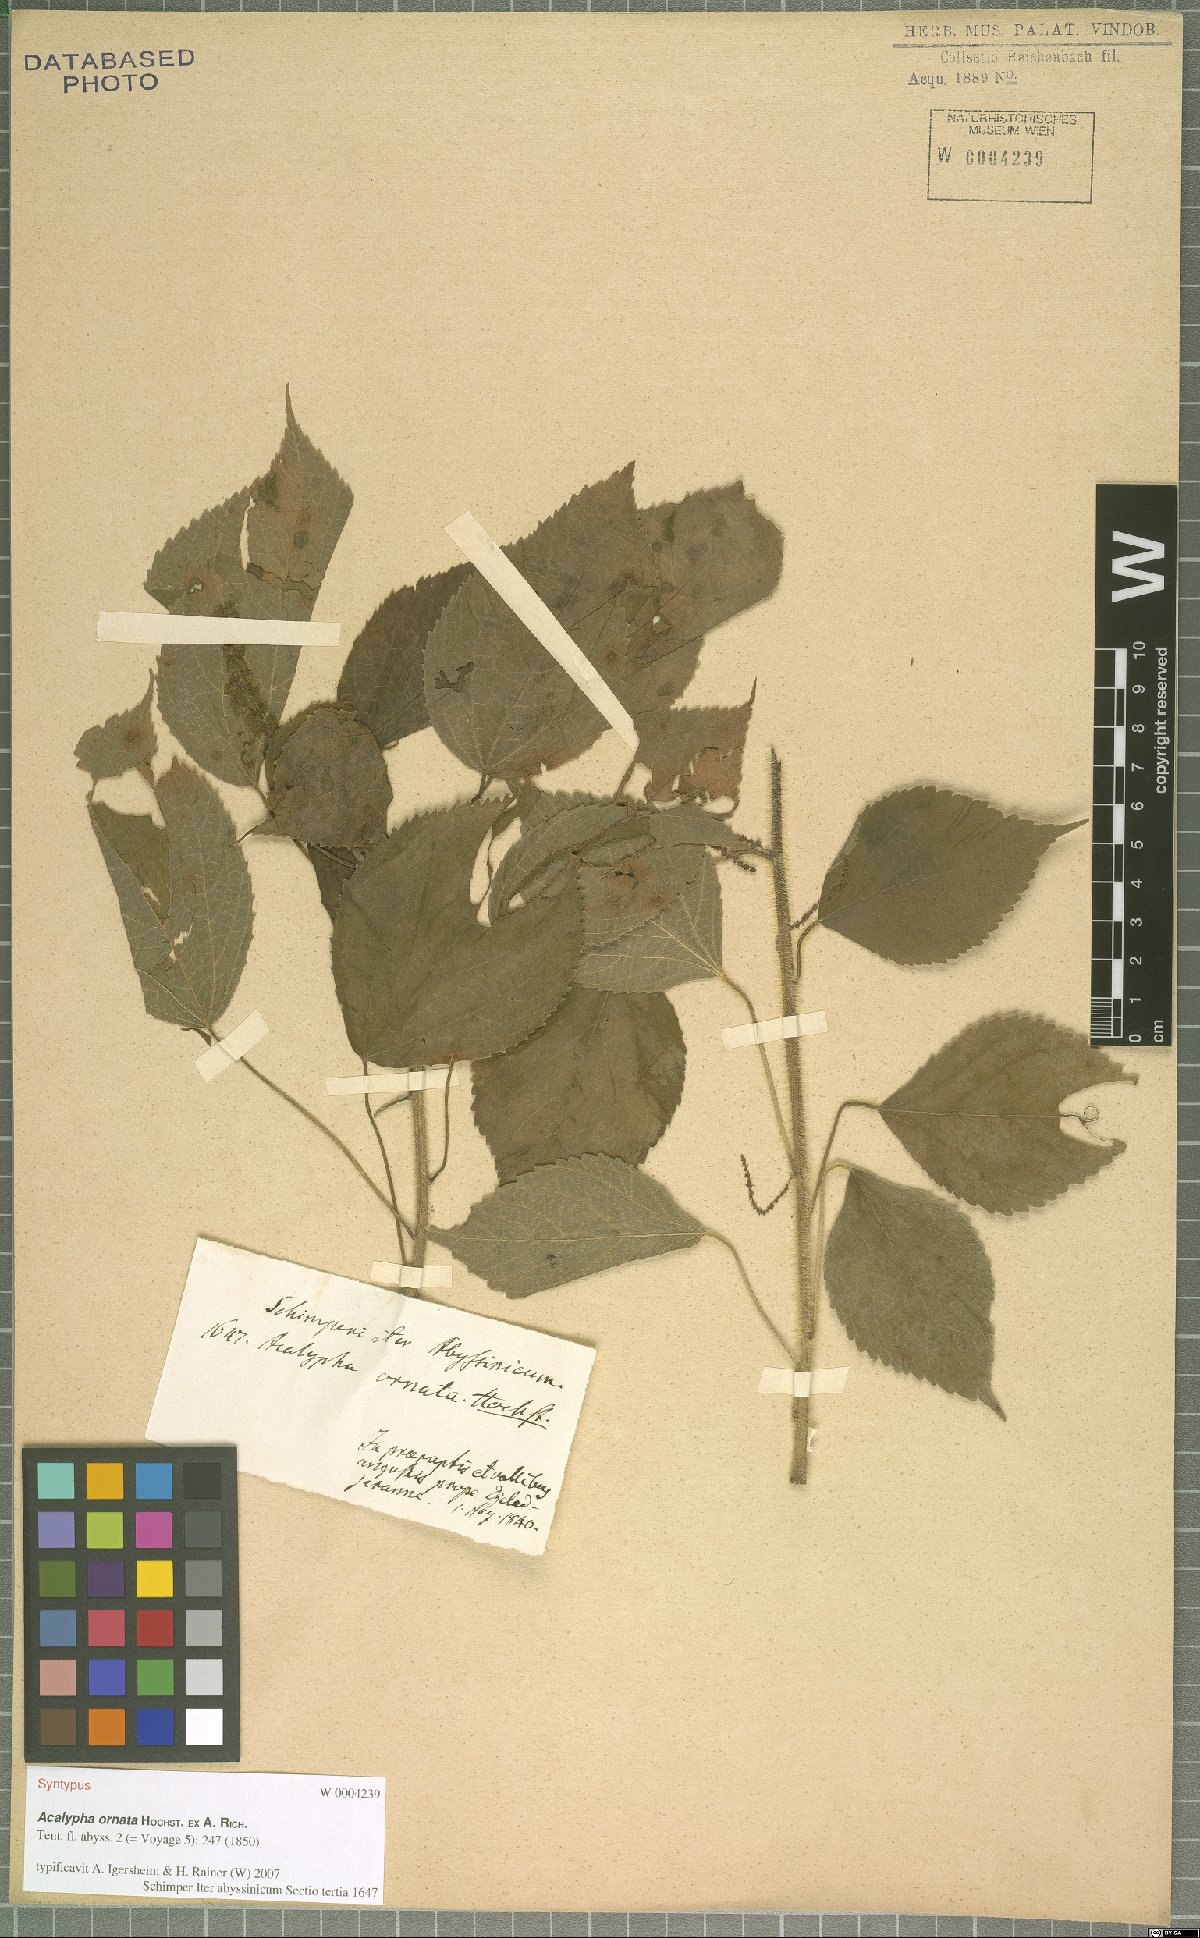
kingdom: Plantae
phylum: Tracheophyta
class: Magnoliopsida
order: Malpighiales
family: Euphorbiaceae
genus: Acalypha
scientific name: Acalypha ornata
